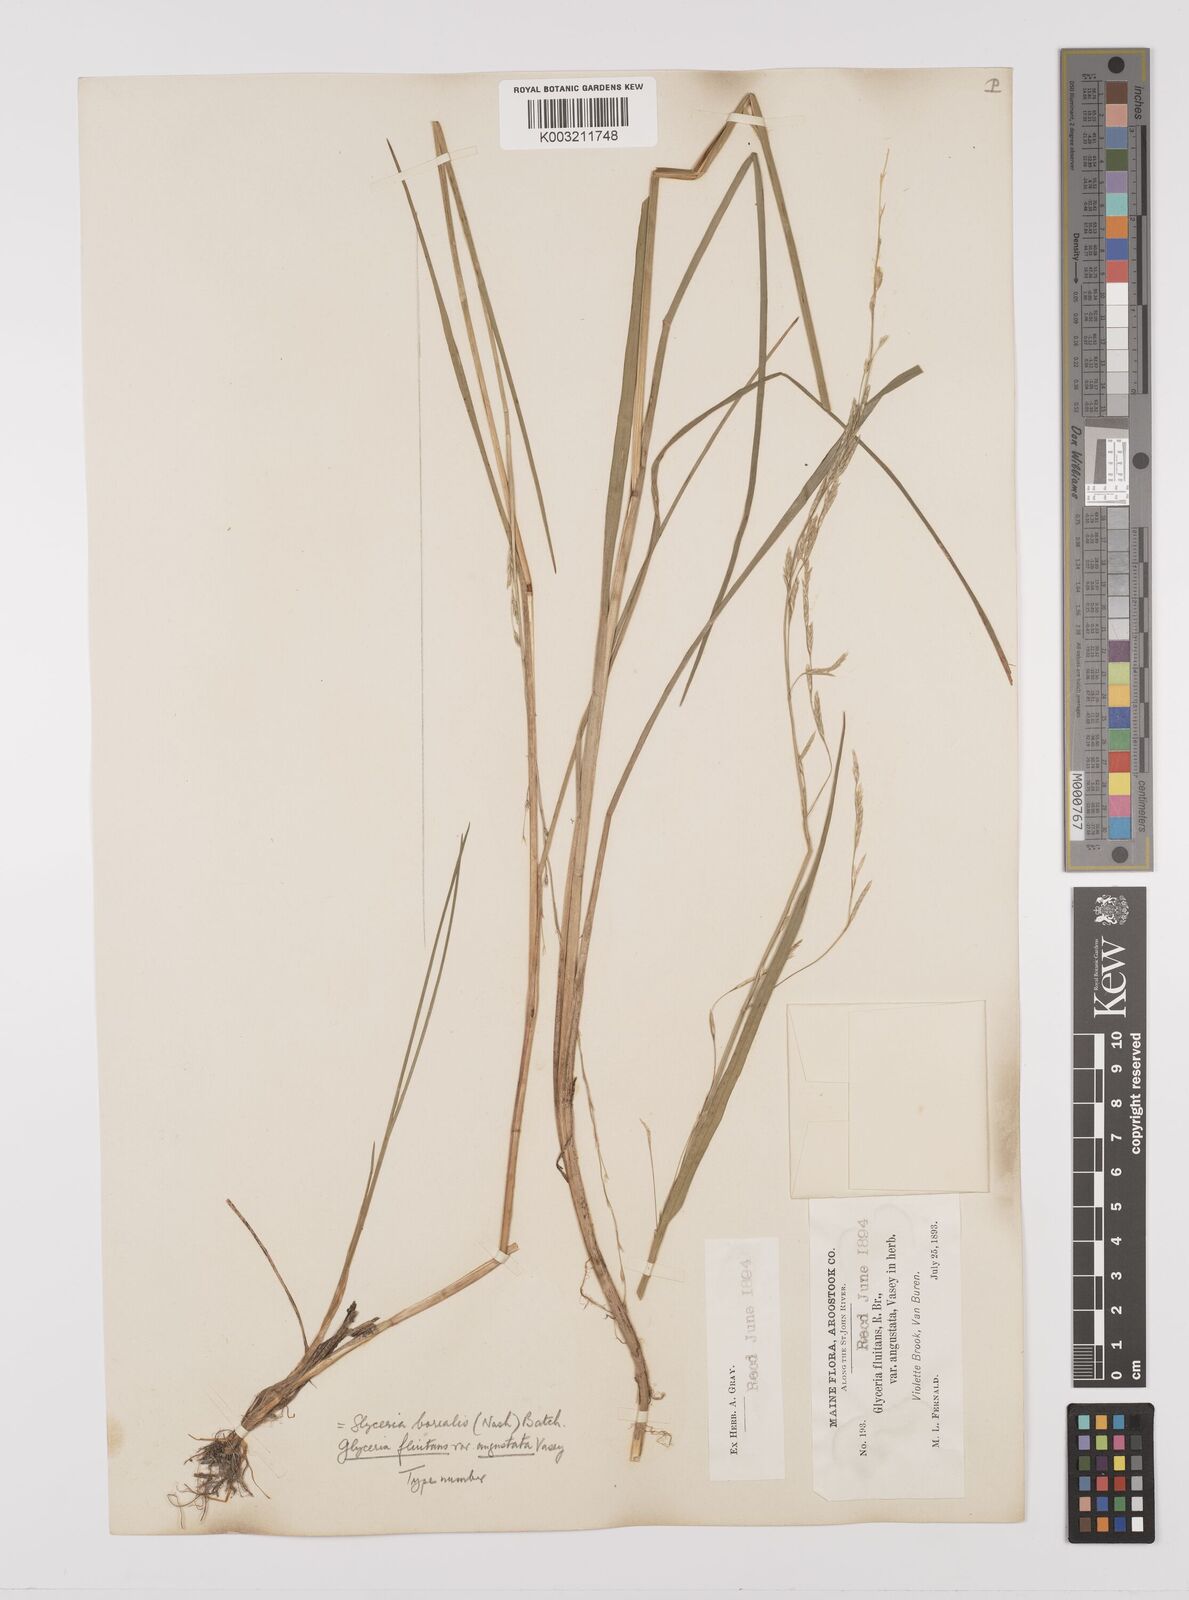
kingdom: Plantae
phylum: Tracheophyta
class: Liliopsida
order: Poales
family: Poaceae
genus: Glyceria
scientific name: Glyceria borealis
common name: Boreal glyceria
